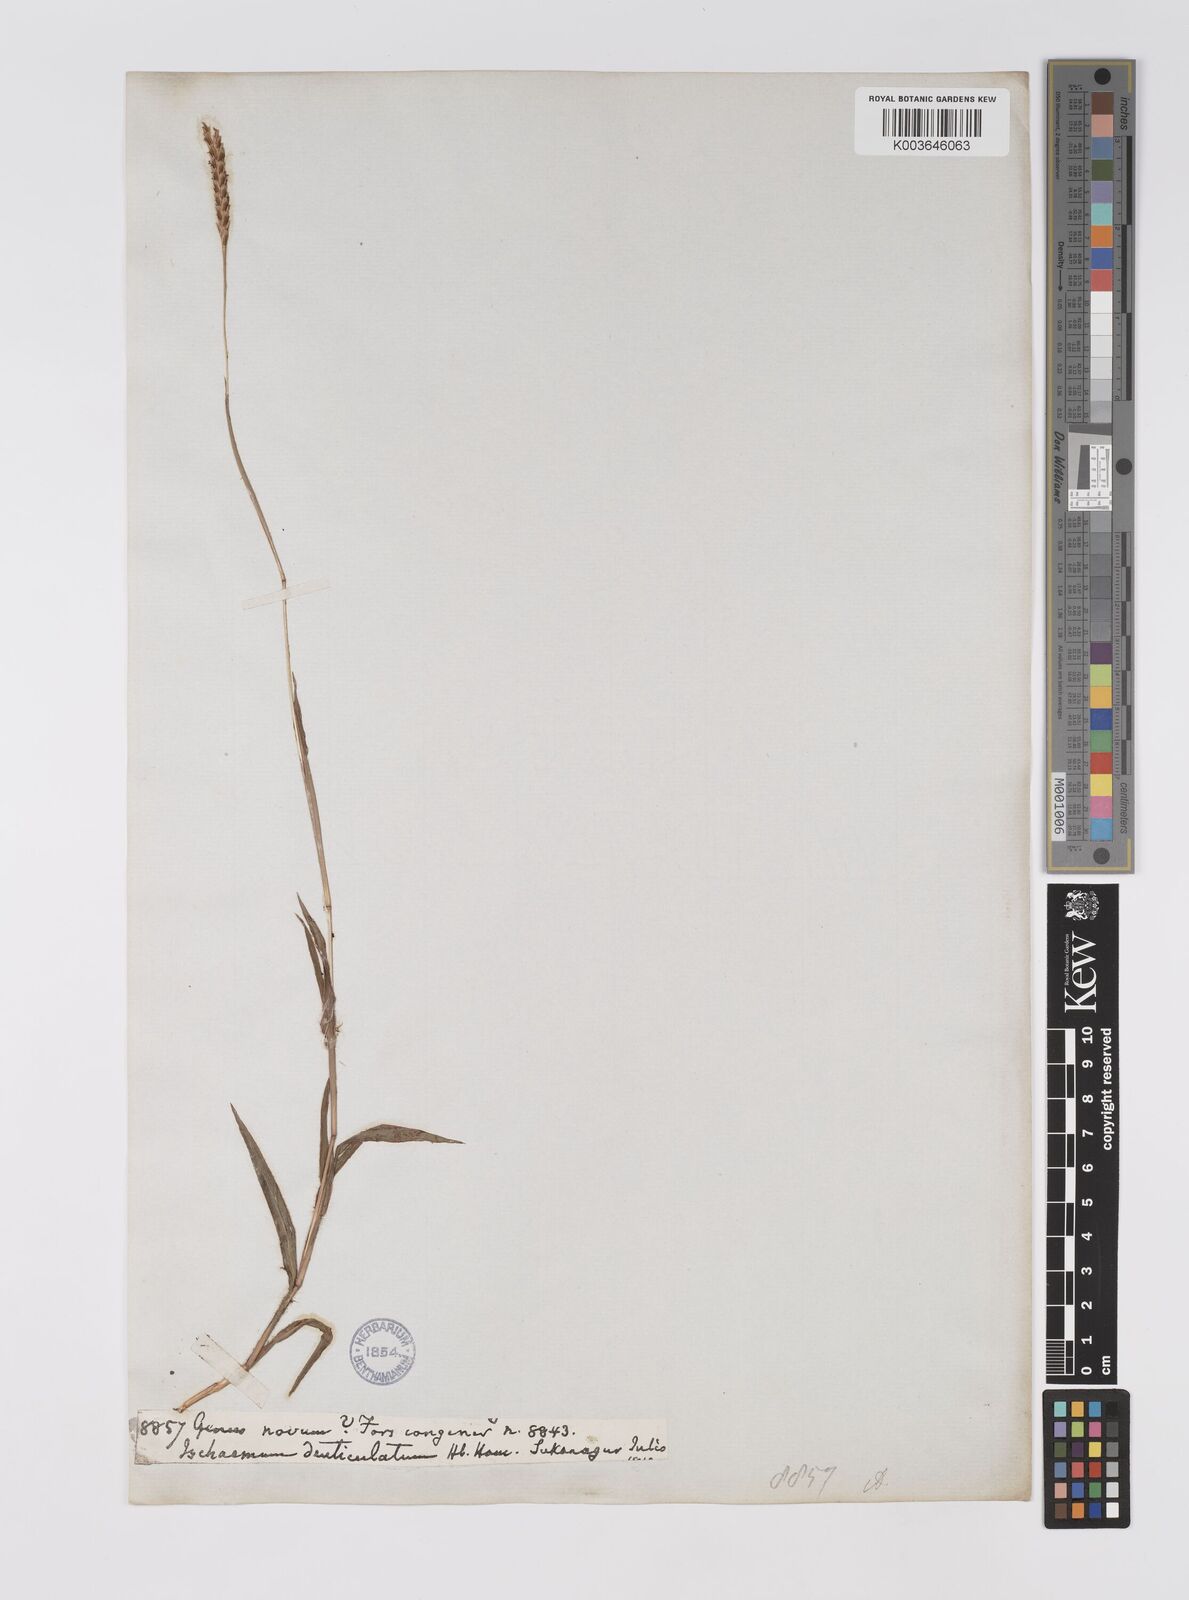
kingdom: Plantae
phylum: Tracheophyta
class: Liliopsida
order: Poales
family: Poaceae
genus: Apocopis
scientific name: Apocopis paleaceus
